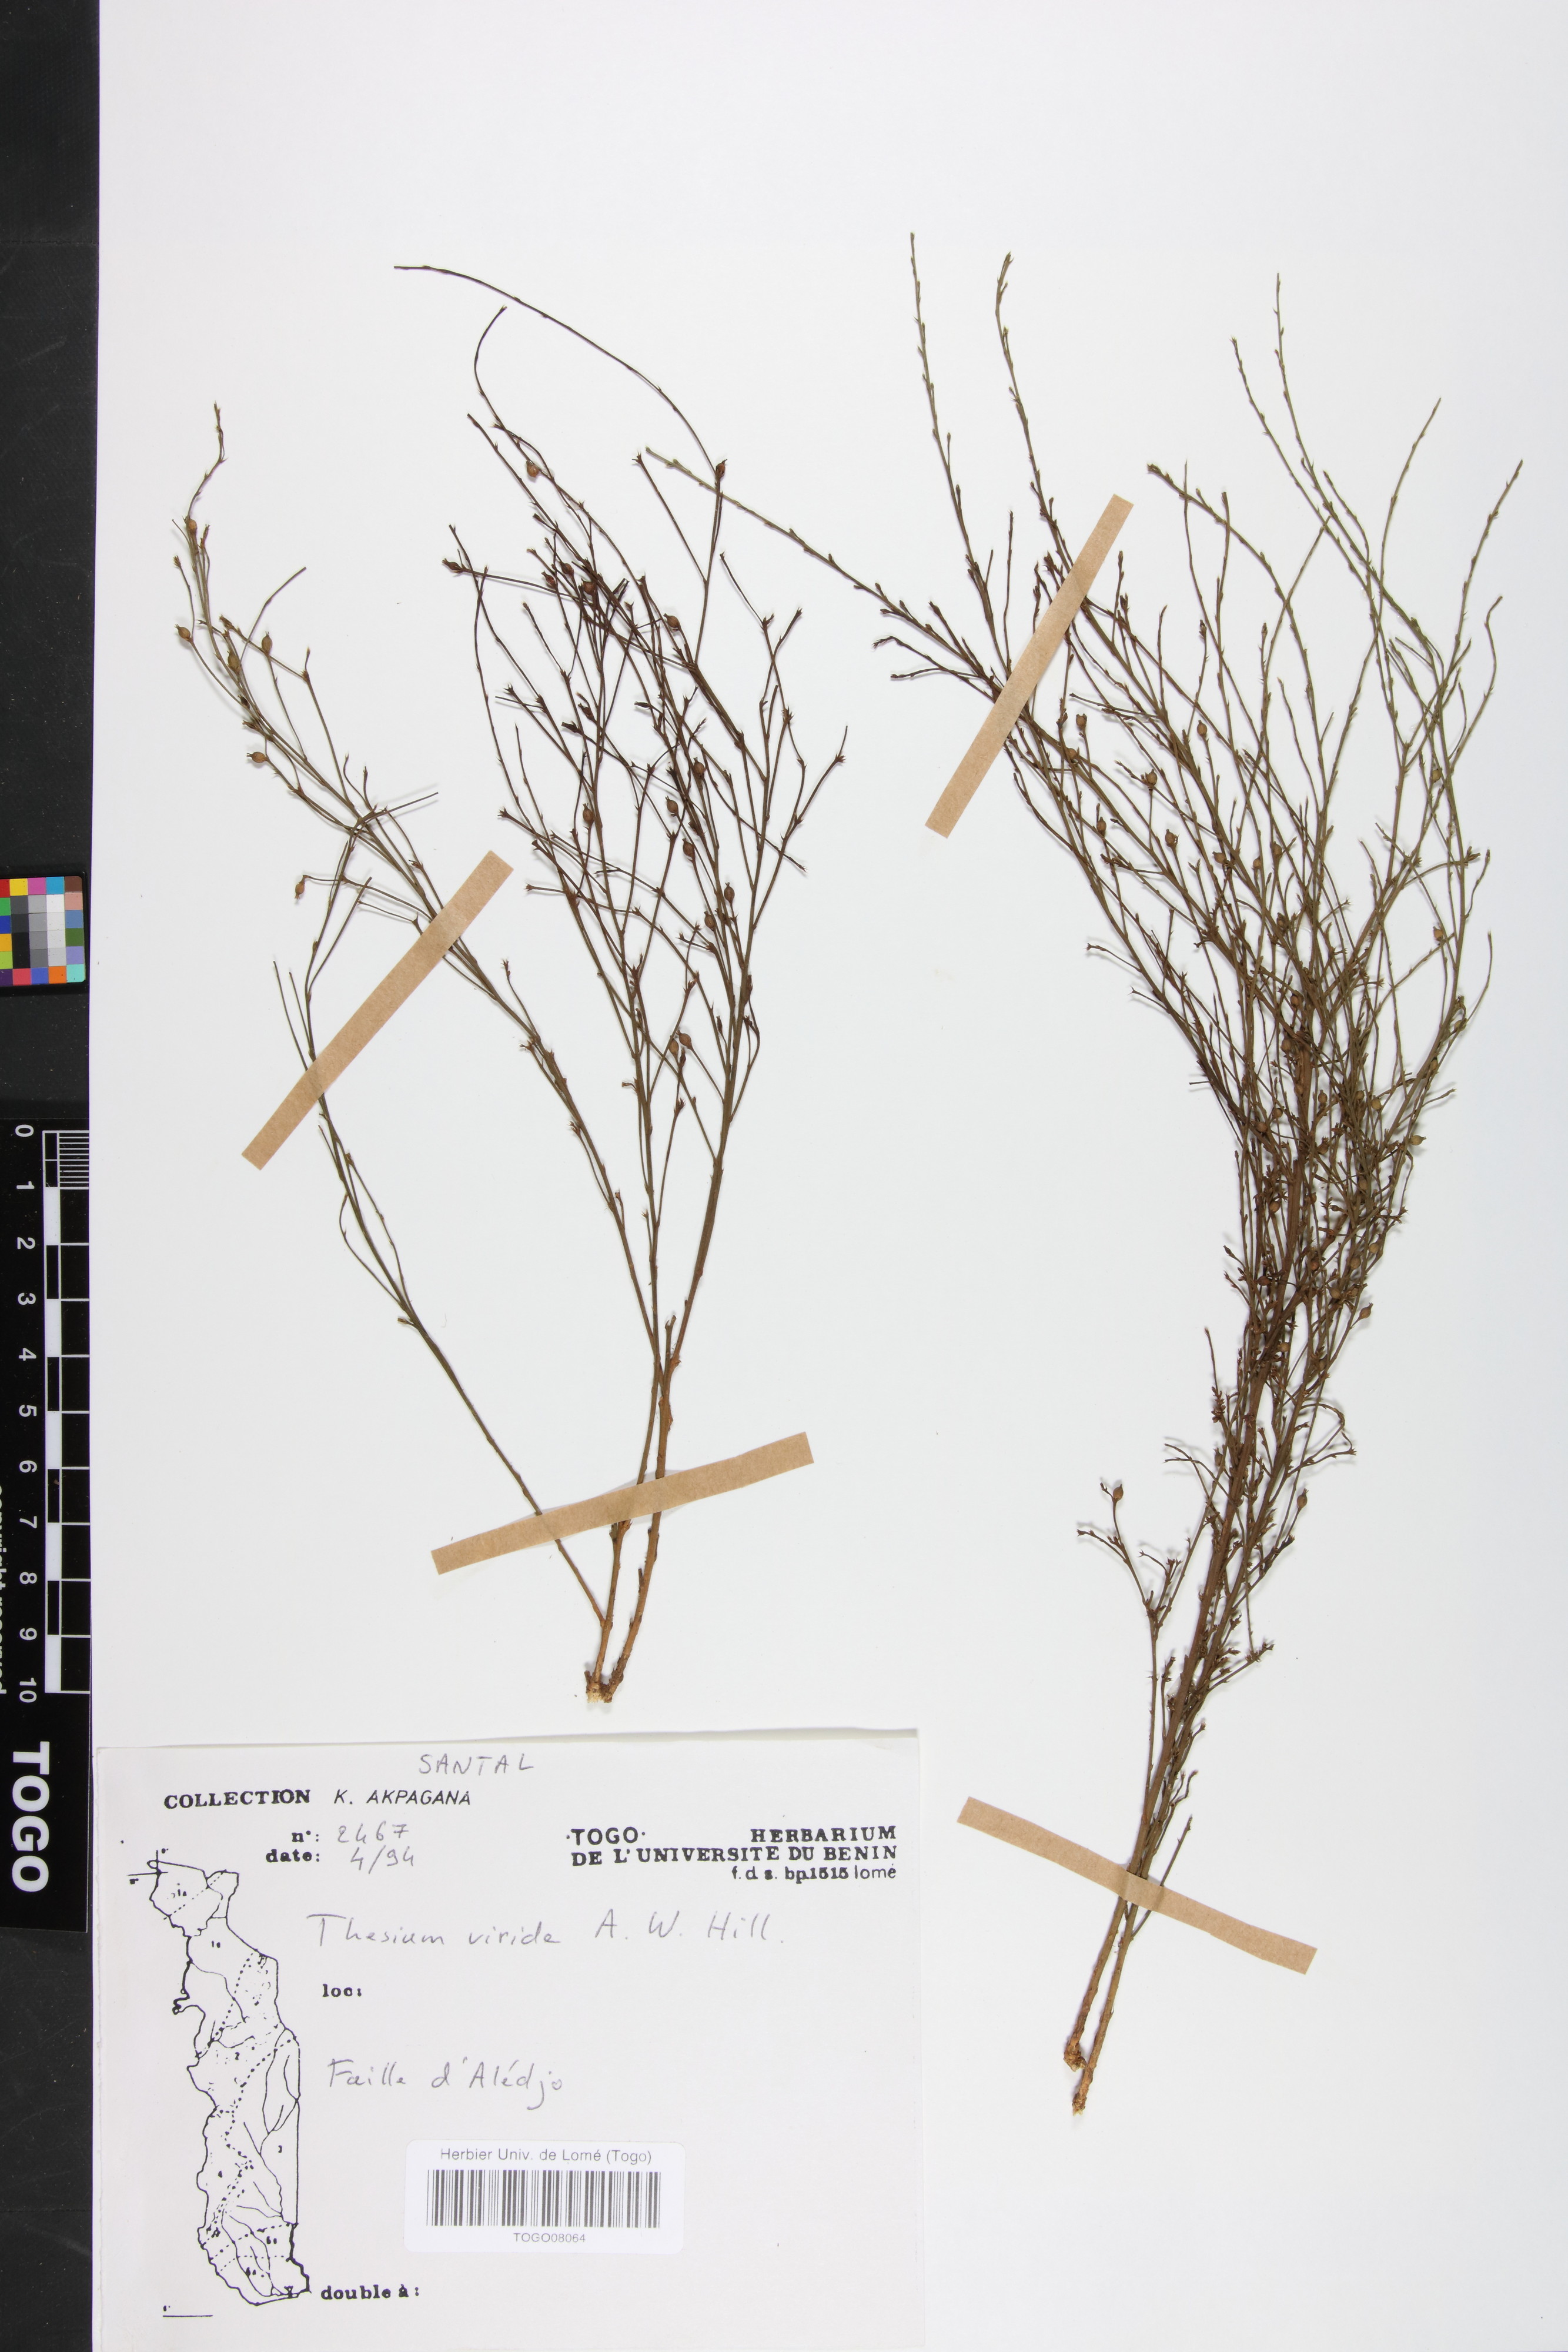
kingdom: Plantae
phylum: Tracheophyta
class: Magnoliopsida
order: Santalales
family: Thesiaceae
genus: Thesium
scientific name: Thesium viride
